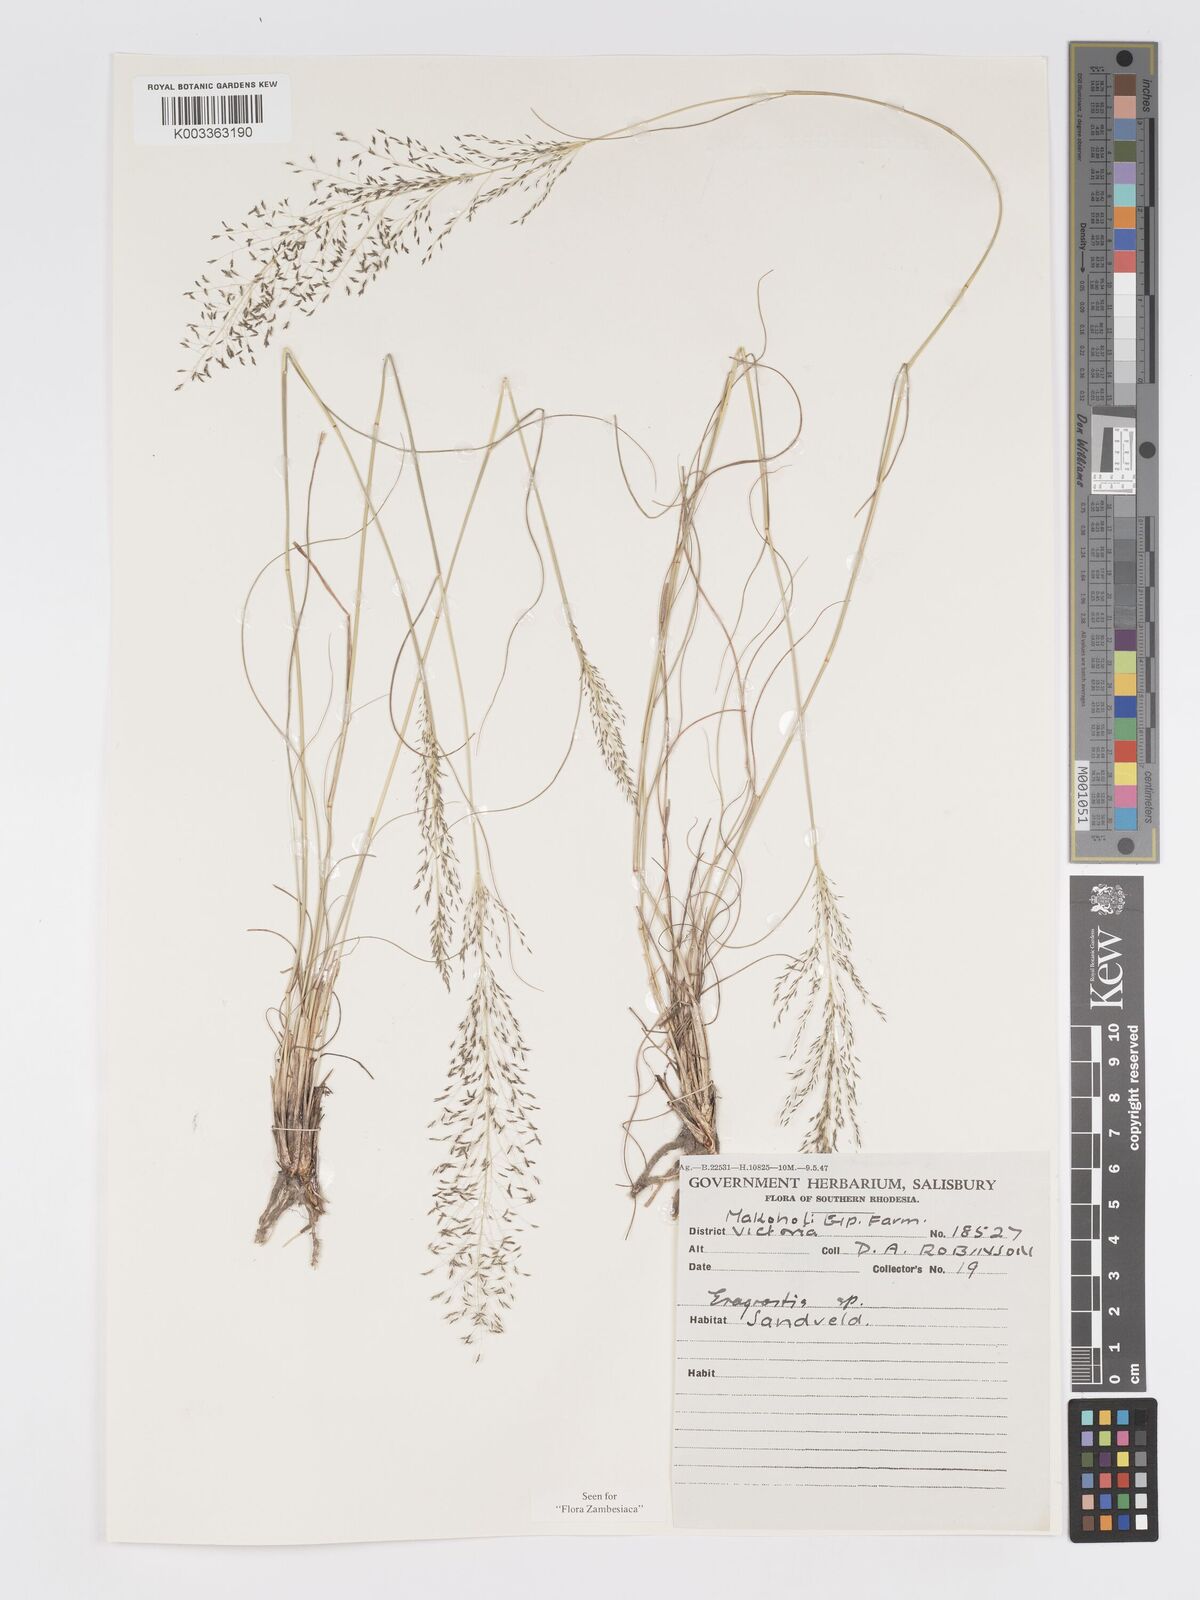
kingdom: Plantae
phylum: Tracheophyta
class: Liliopsida
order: Poales
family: Poaceae
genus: Eragrostis
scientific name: Eragrostis stapfii
